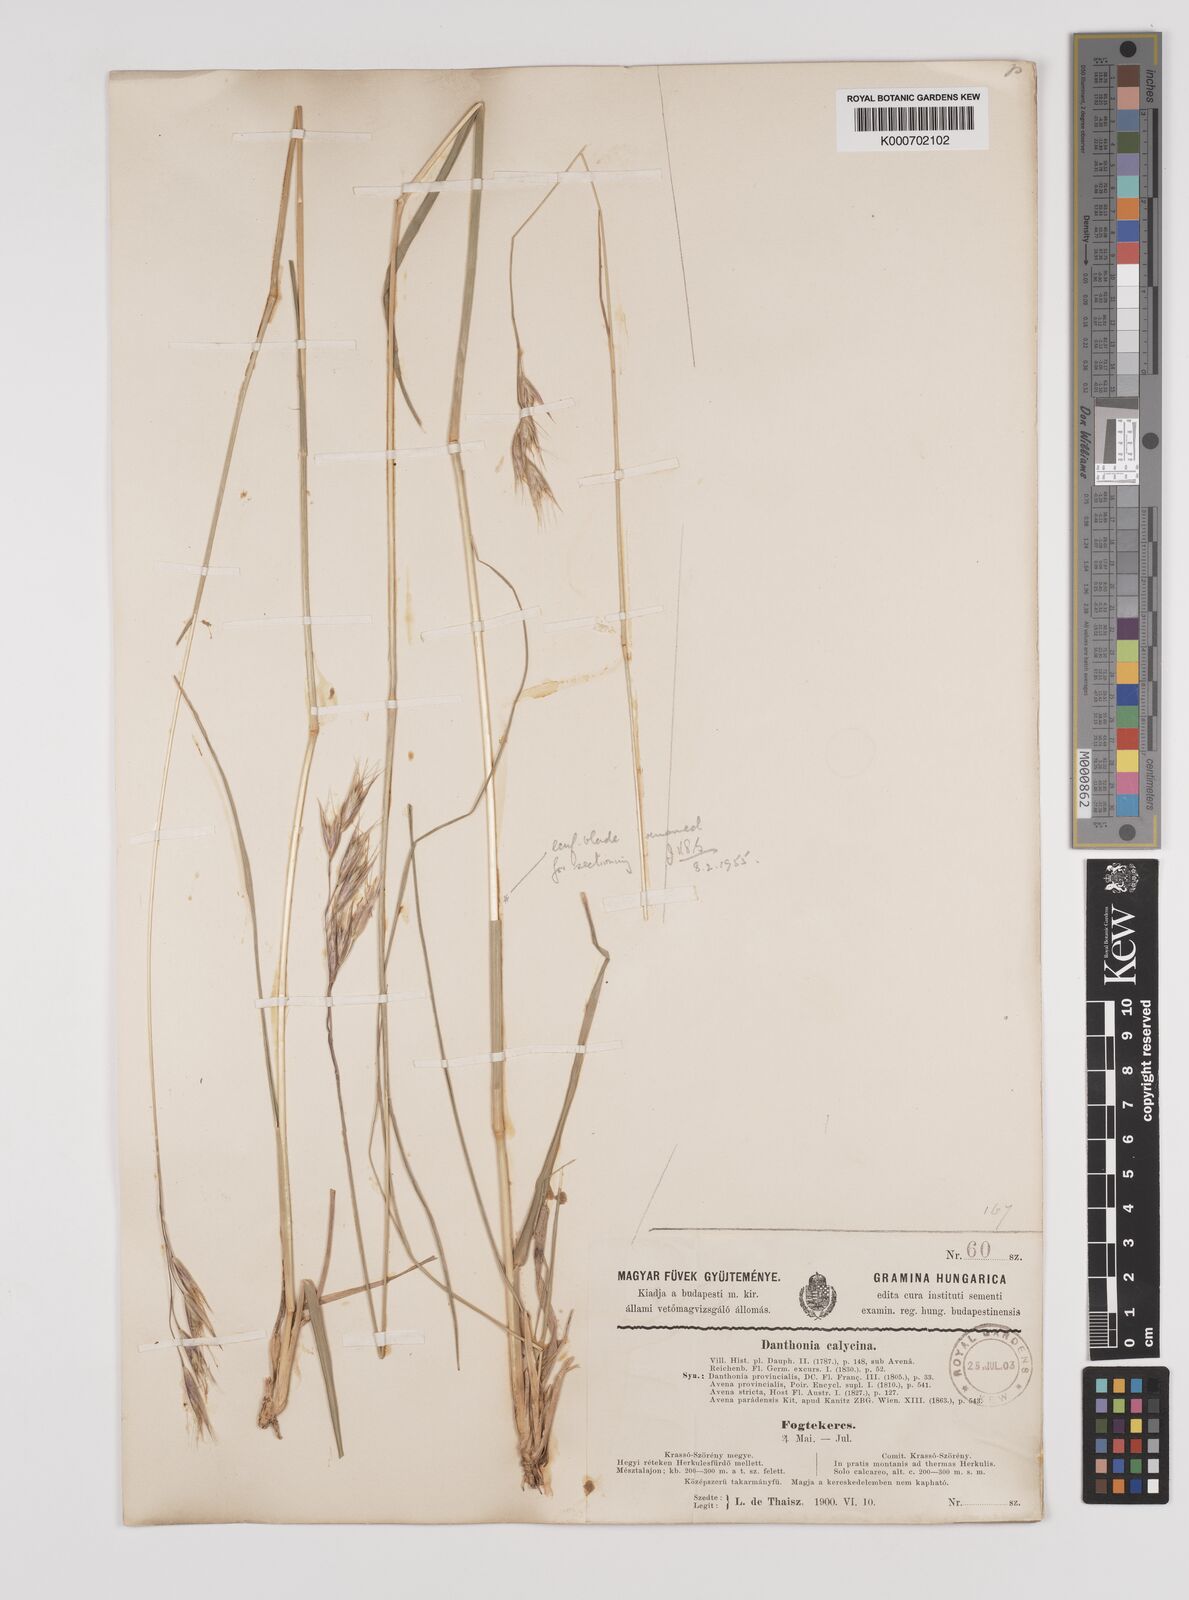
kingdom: Plantae
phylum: Tracheophyta
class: Liliopsida
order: Poales
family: Poaceae
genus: Danthonia
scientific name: Danthonia alpina
